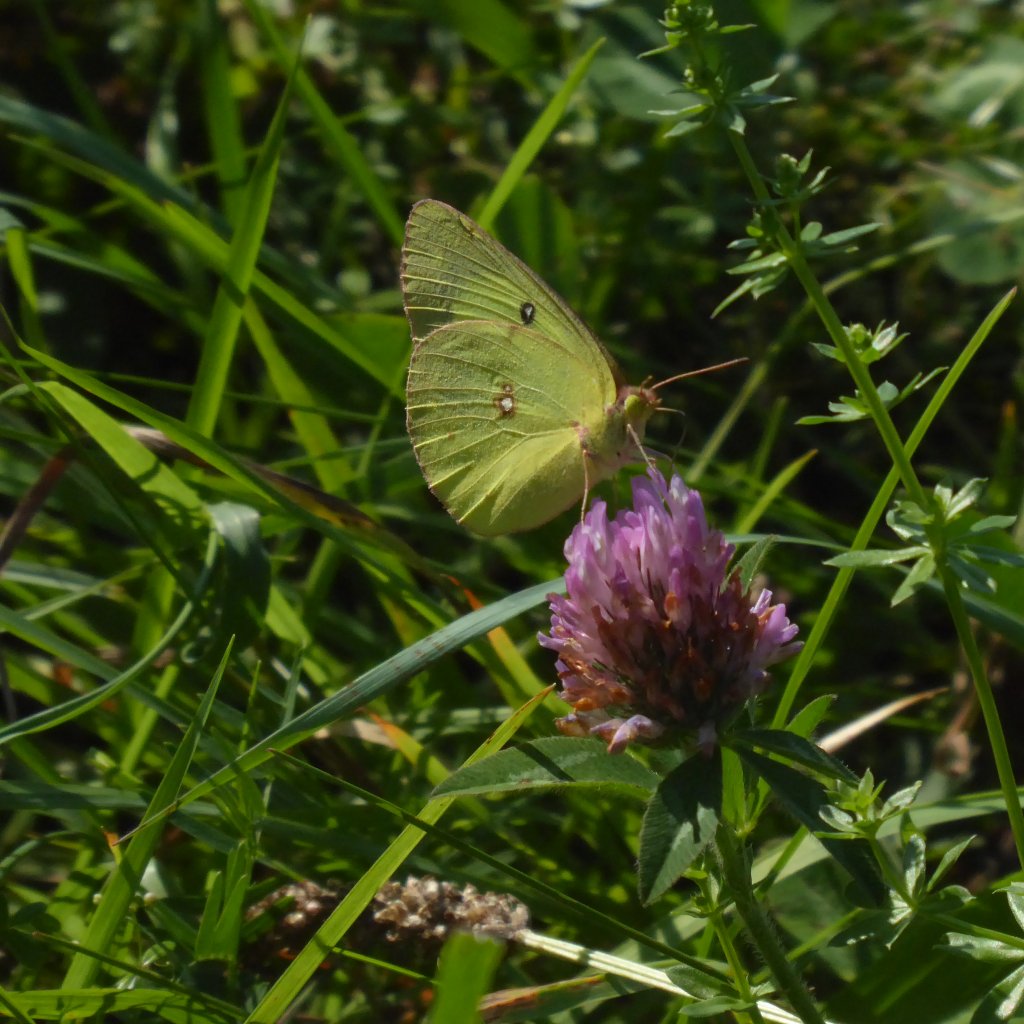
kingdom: Animalia
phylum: Arthropoda
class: Insecta
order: Lepidoptera
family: Pieridae
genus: Colias
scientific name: Colias philodice
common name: Clouded Sulphur
